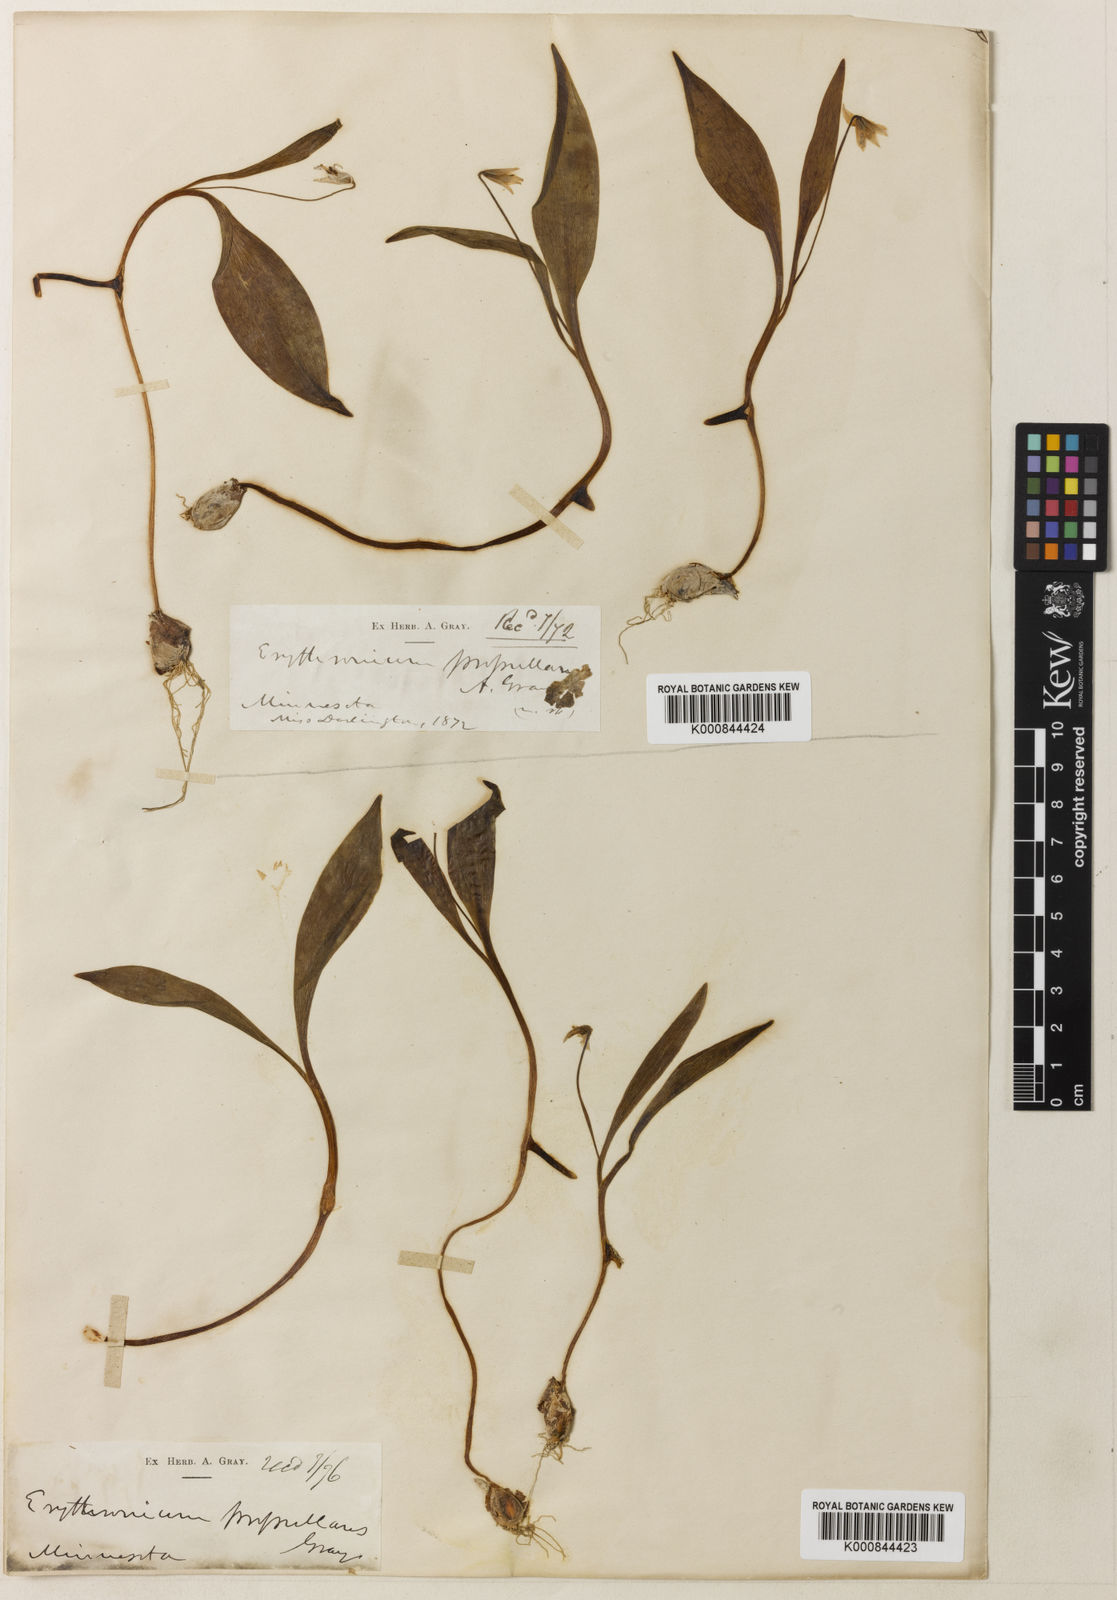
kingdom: Plantae
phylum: Tracheophyta
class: Liliopsida
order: Liliales
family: Liliaceae
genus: Erythronium
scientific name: Erythronium propullans
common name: Minnesota dwarf trout-lily
